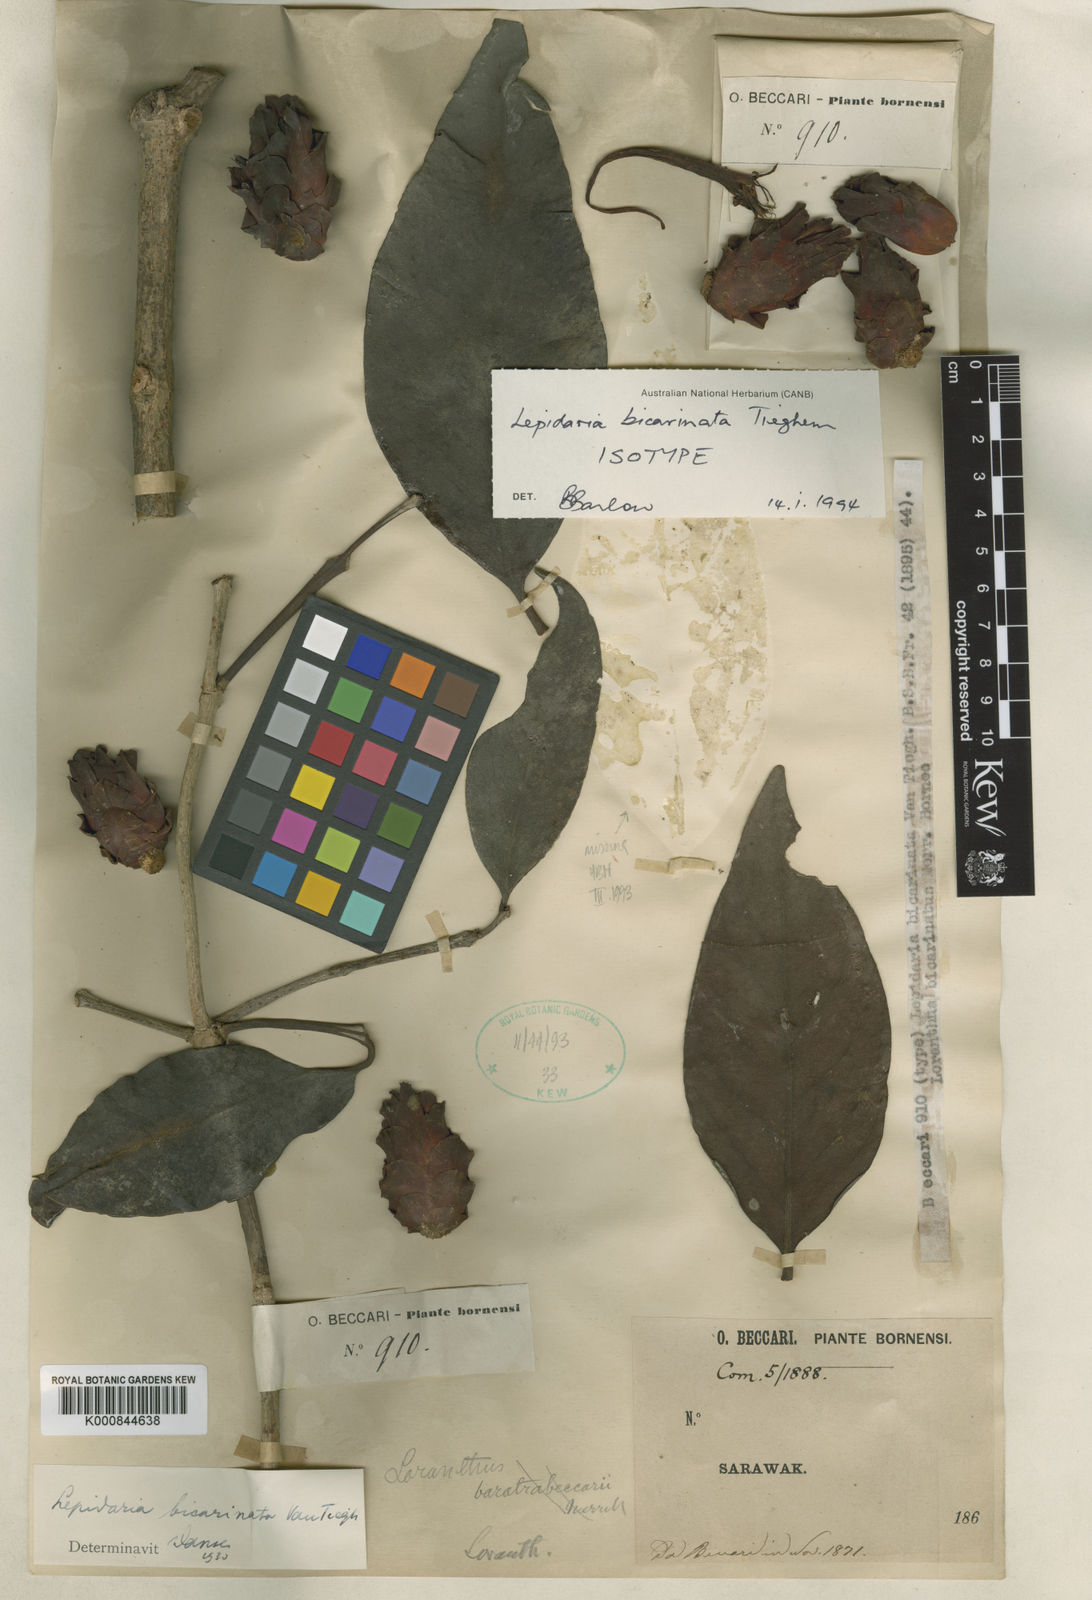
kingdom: Plantae
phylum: Tracheophyta
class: Magnoliopsida
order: Santalales
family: Loranthaceae
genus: Lepidaria
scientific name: Lepidaria bicarinata
